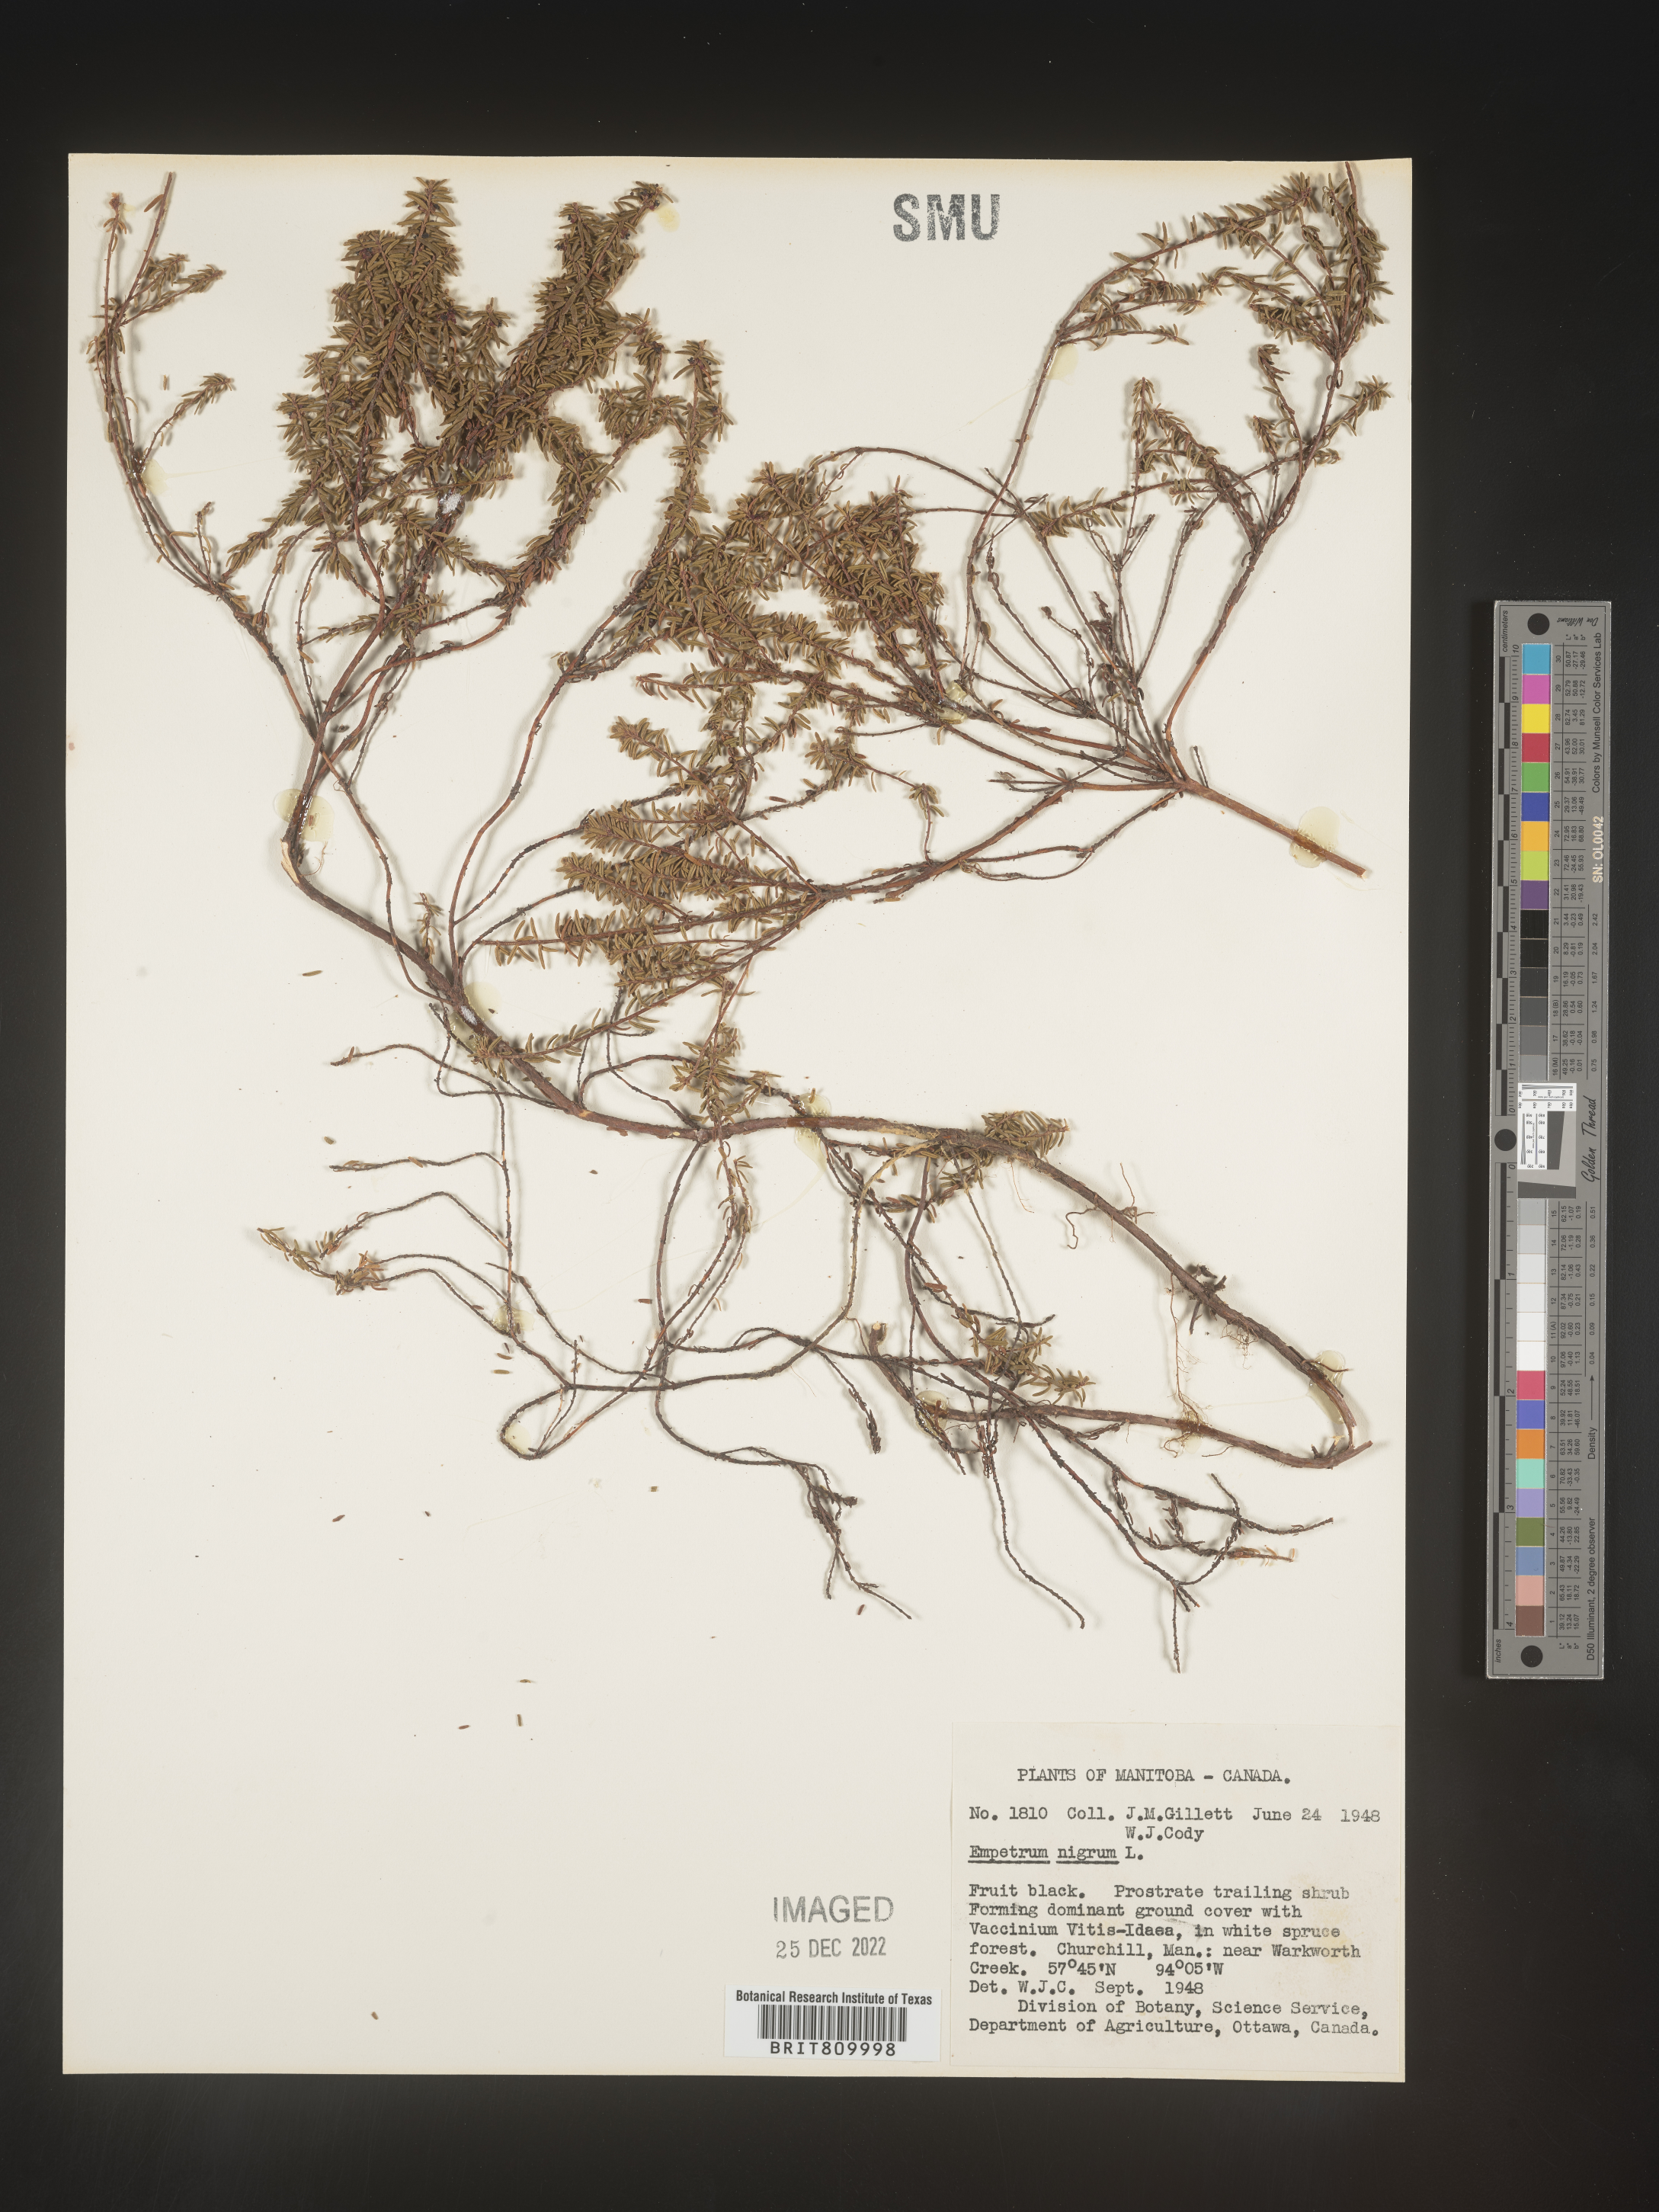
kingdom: Plantae
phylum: Tracheophyta
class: Magnoliopsida
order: Ericales
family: Ericaceae
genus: Empetrum
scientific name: Empetrum
